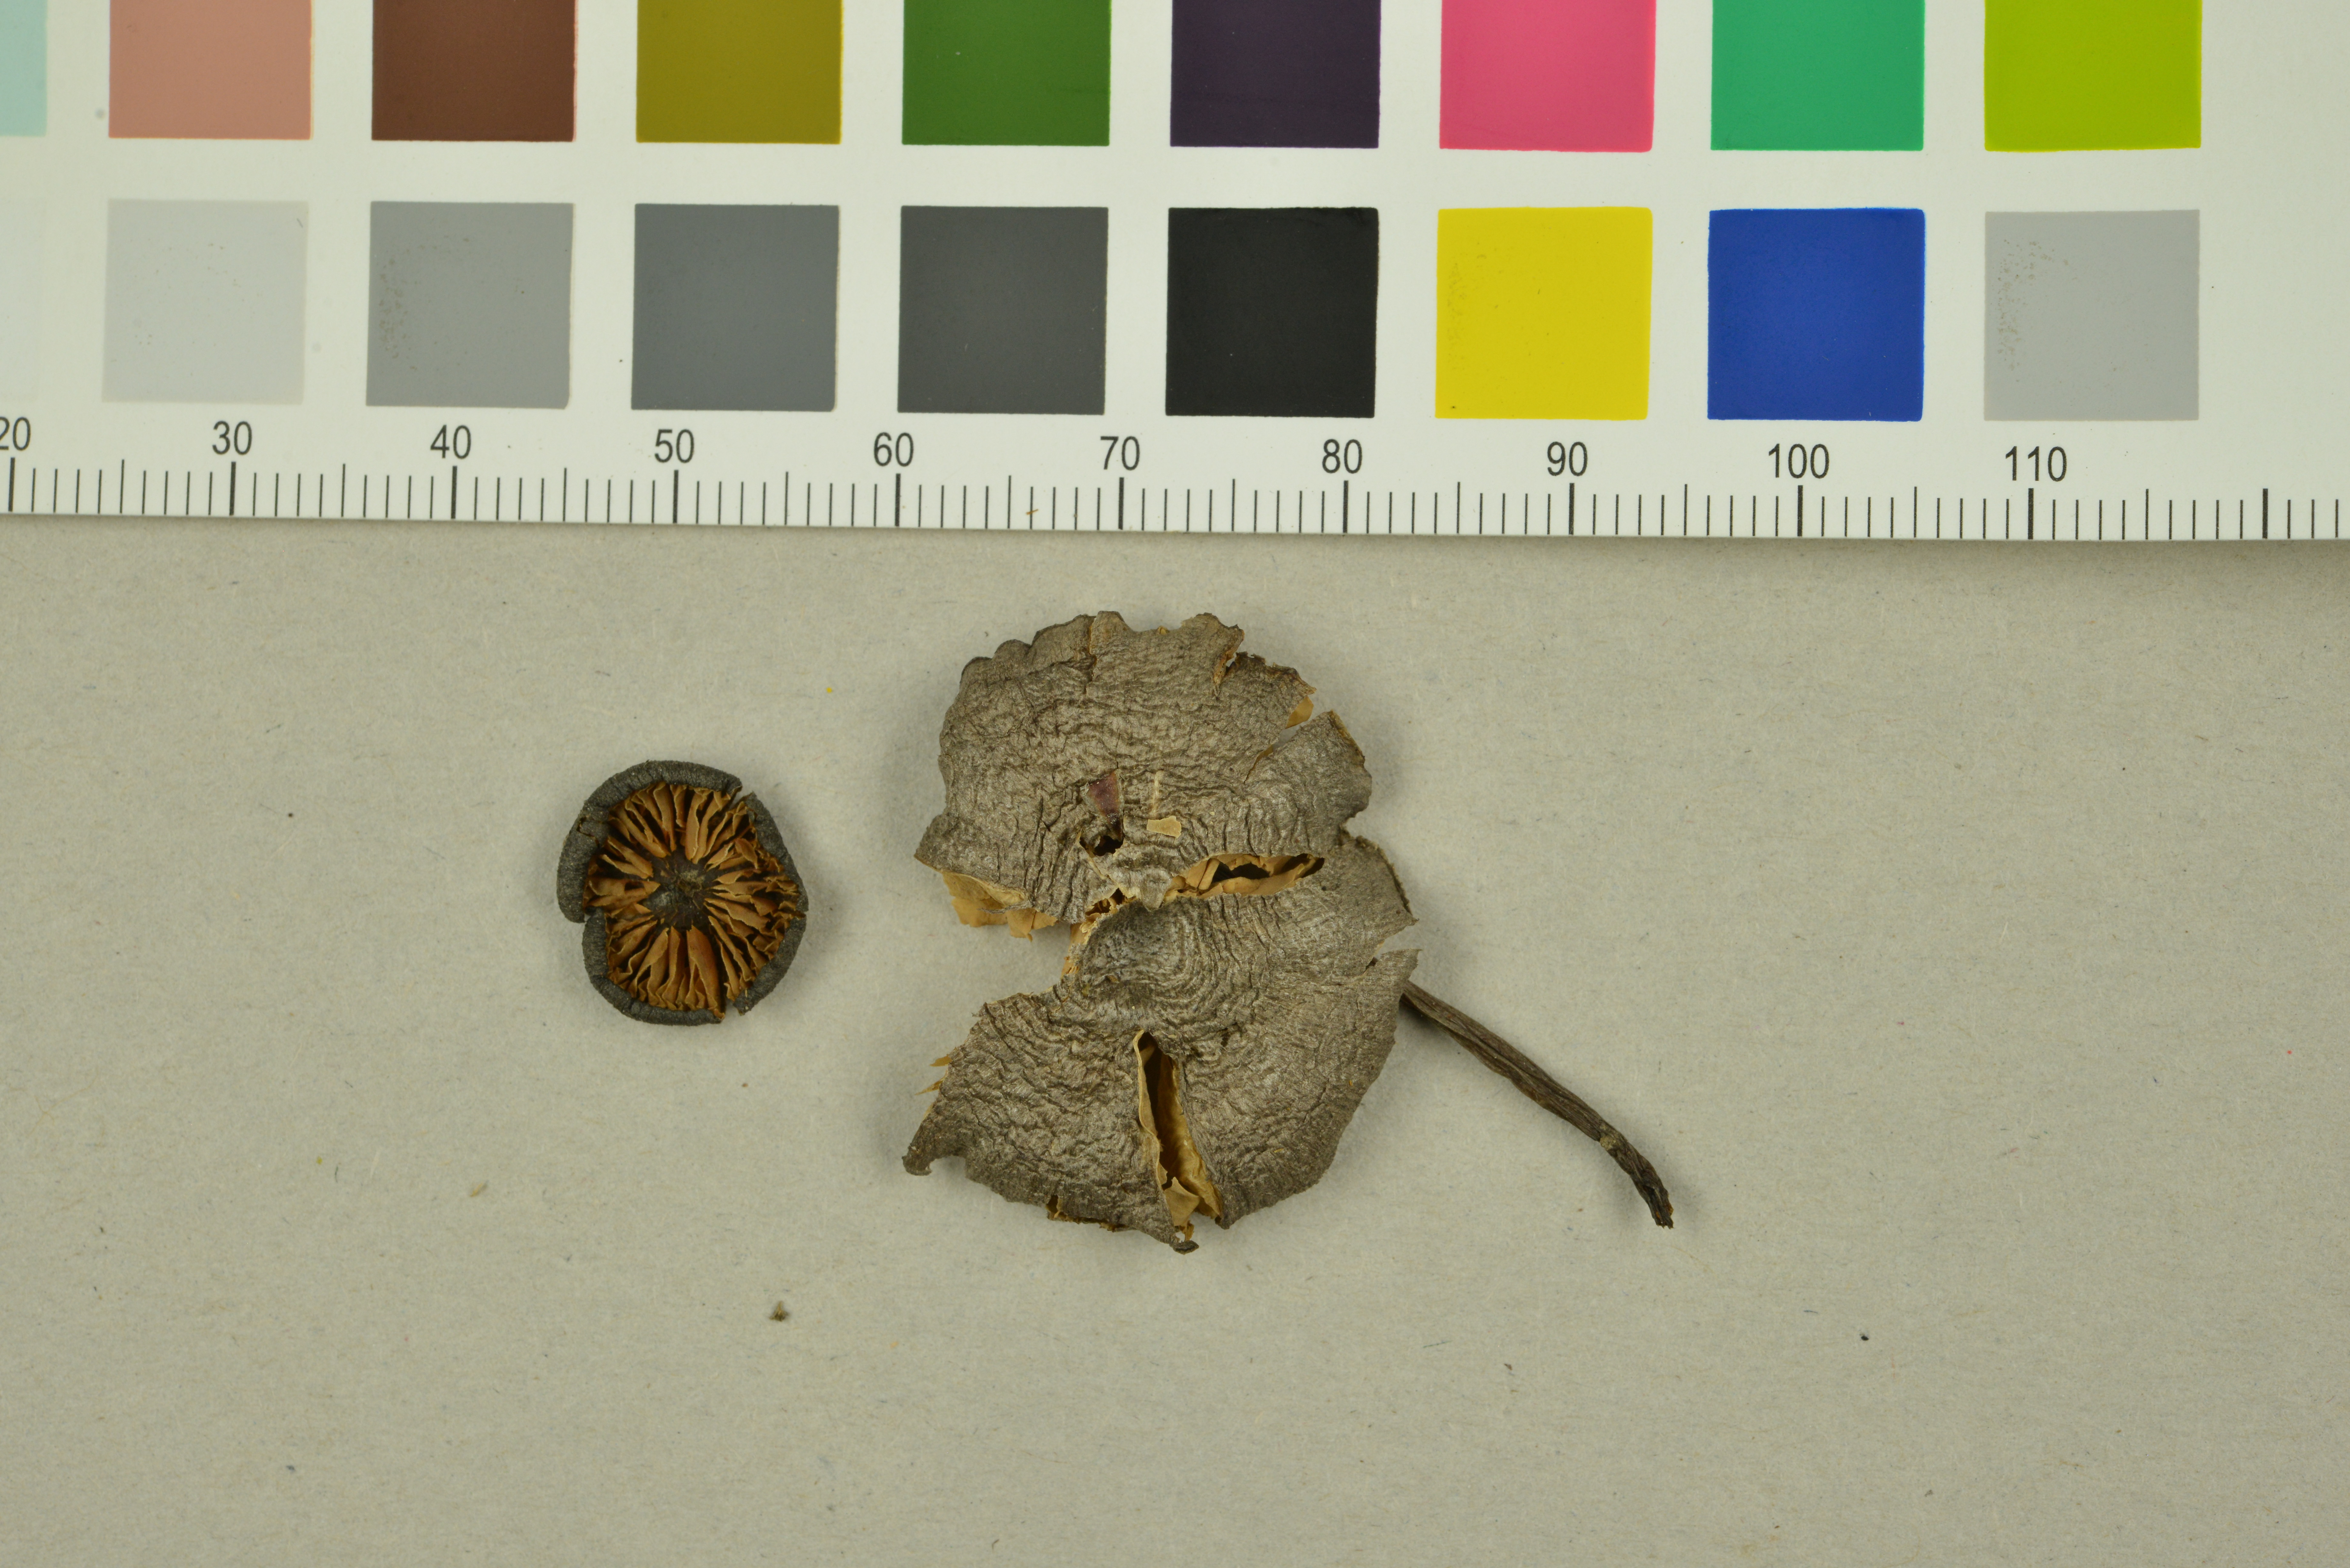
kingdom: Fungi
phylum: Basidiomycota
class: Agaricomycetes
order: Agaricales
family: Entolomataceae
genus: Entoloma
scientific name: Entoloma mougeotii
